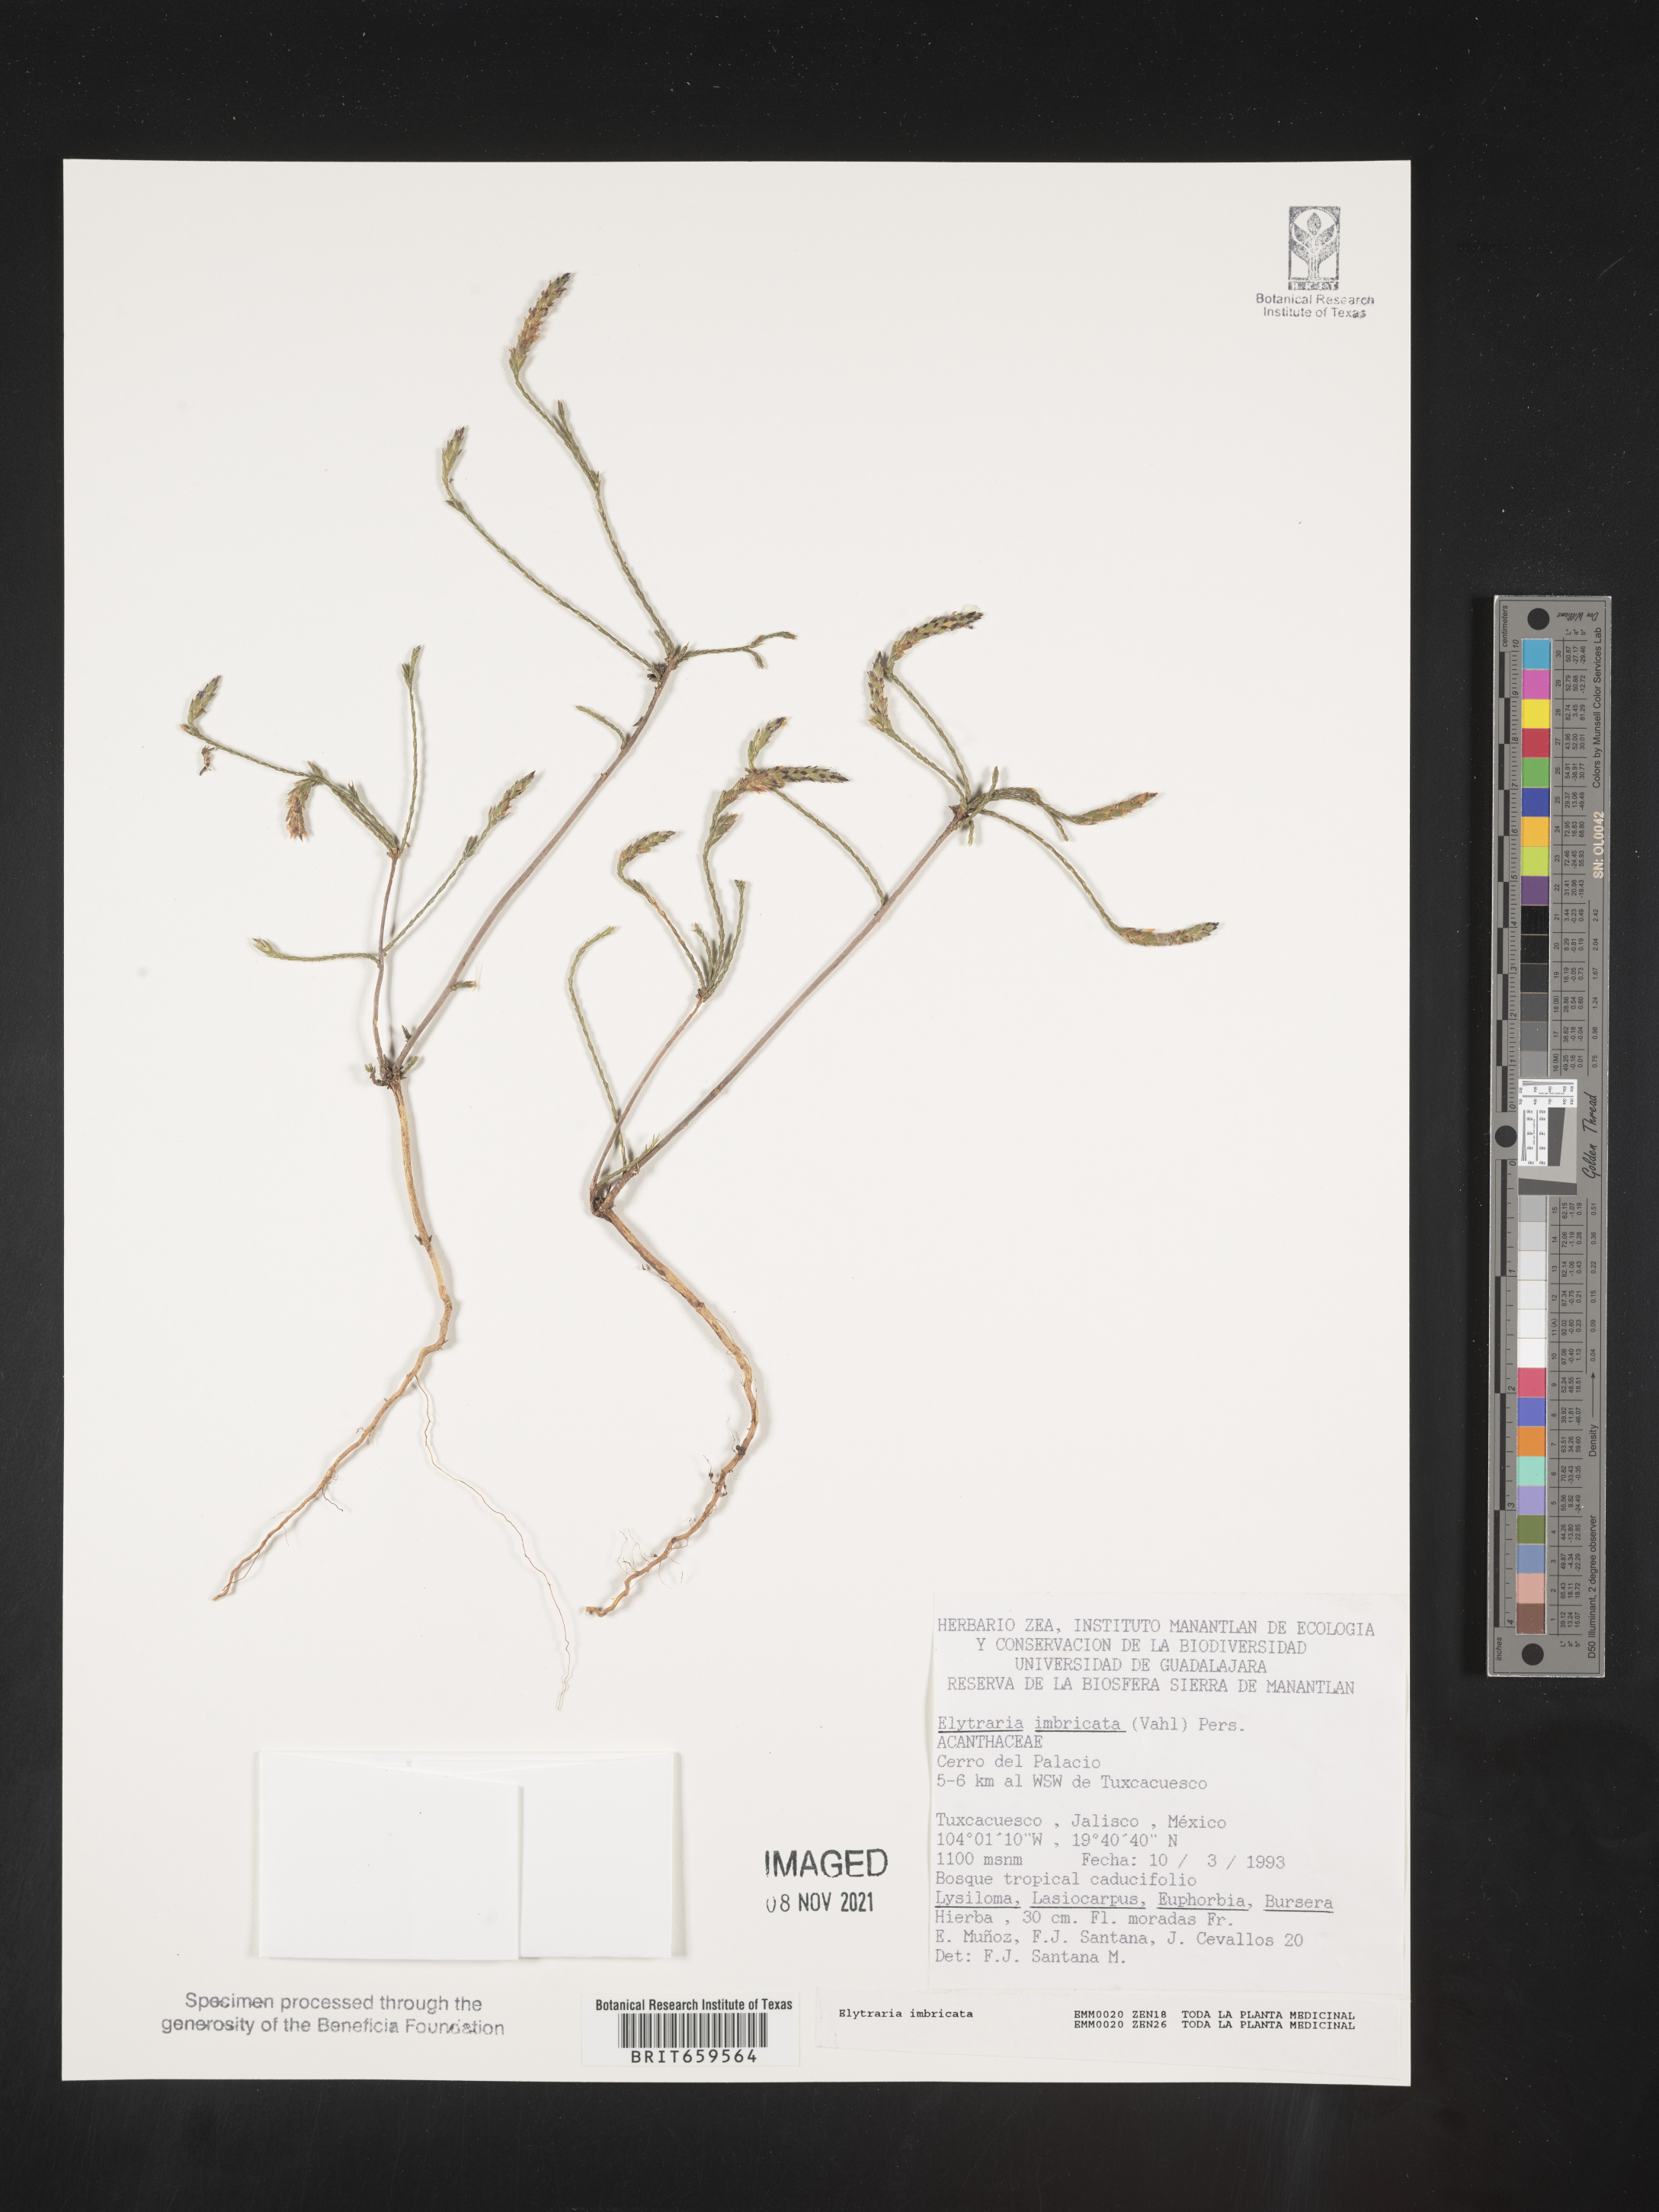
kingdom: Plantae
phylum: Tracheophyta
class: Magnoliopsida
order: Lamiales
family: Acanthaceae
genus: Elytraria
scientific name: Elytraria imbricata
